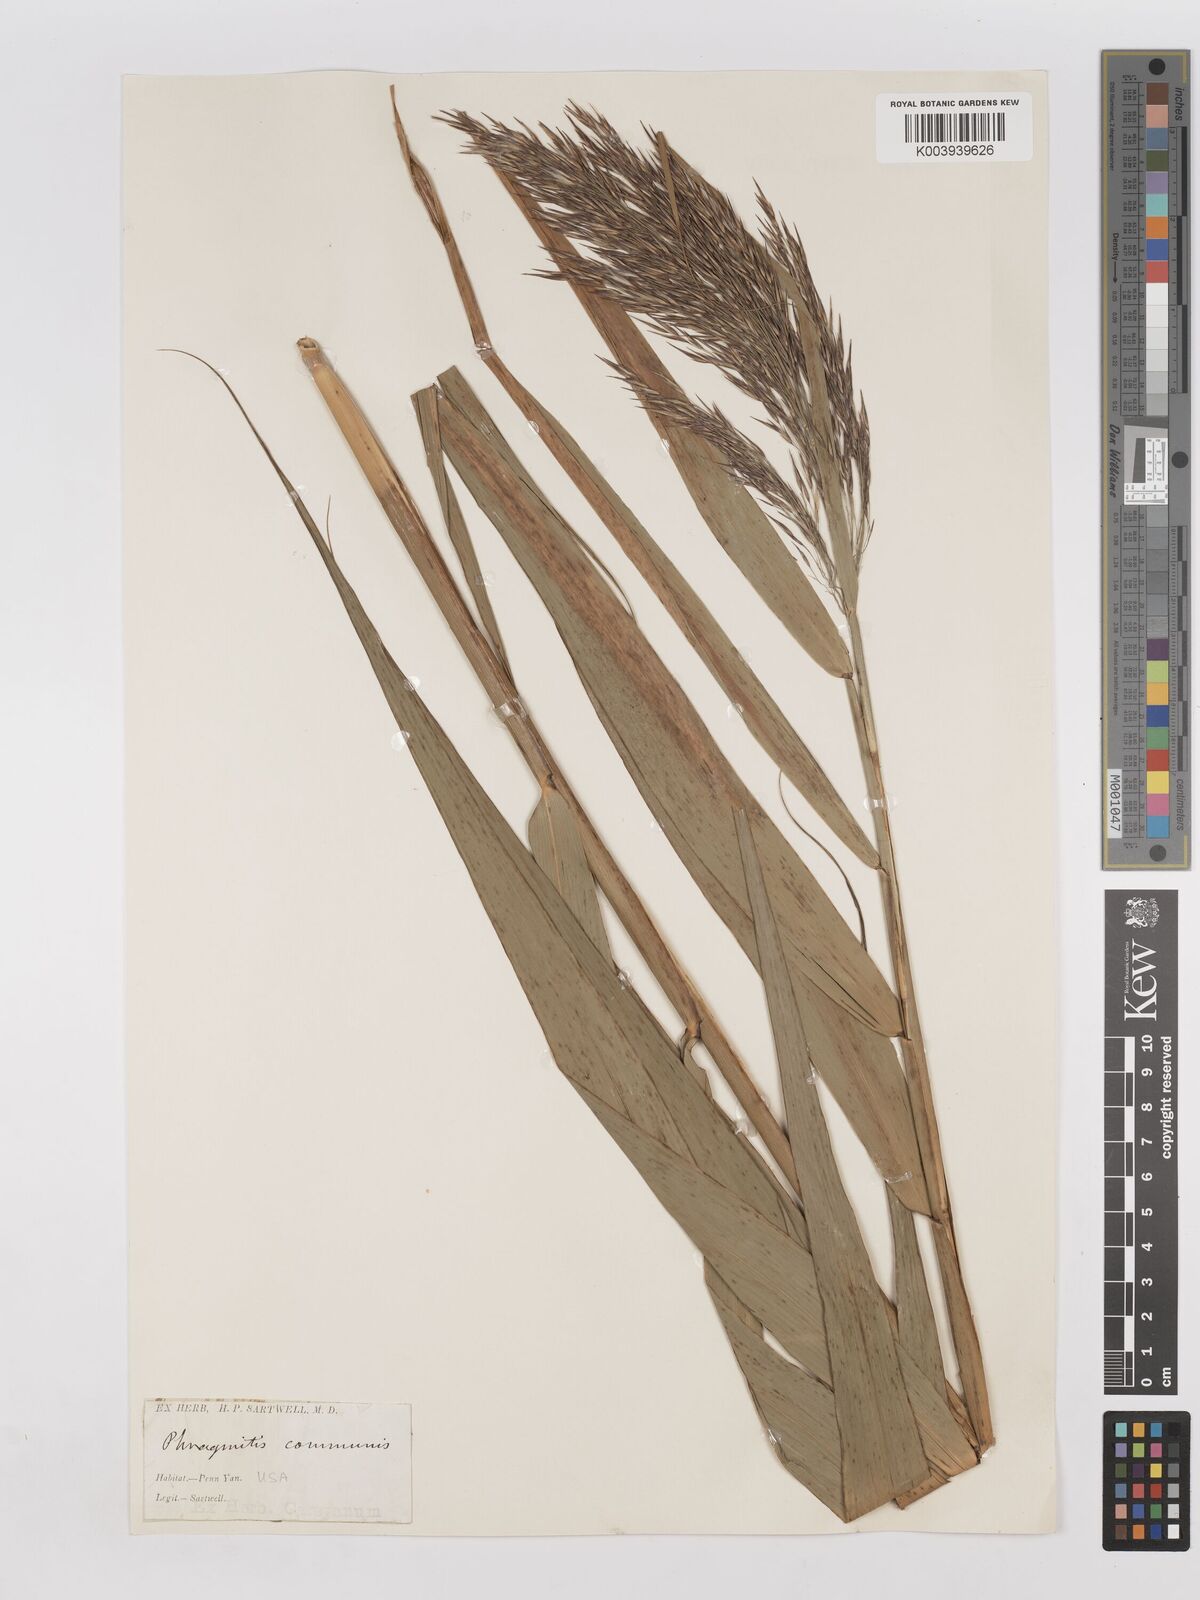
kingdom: Plantae
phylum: Tracheophyta
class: Liliopsida
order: Poales
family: Poaceae
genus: Phragmites
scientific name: Phragmites australis
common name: Common reed
